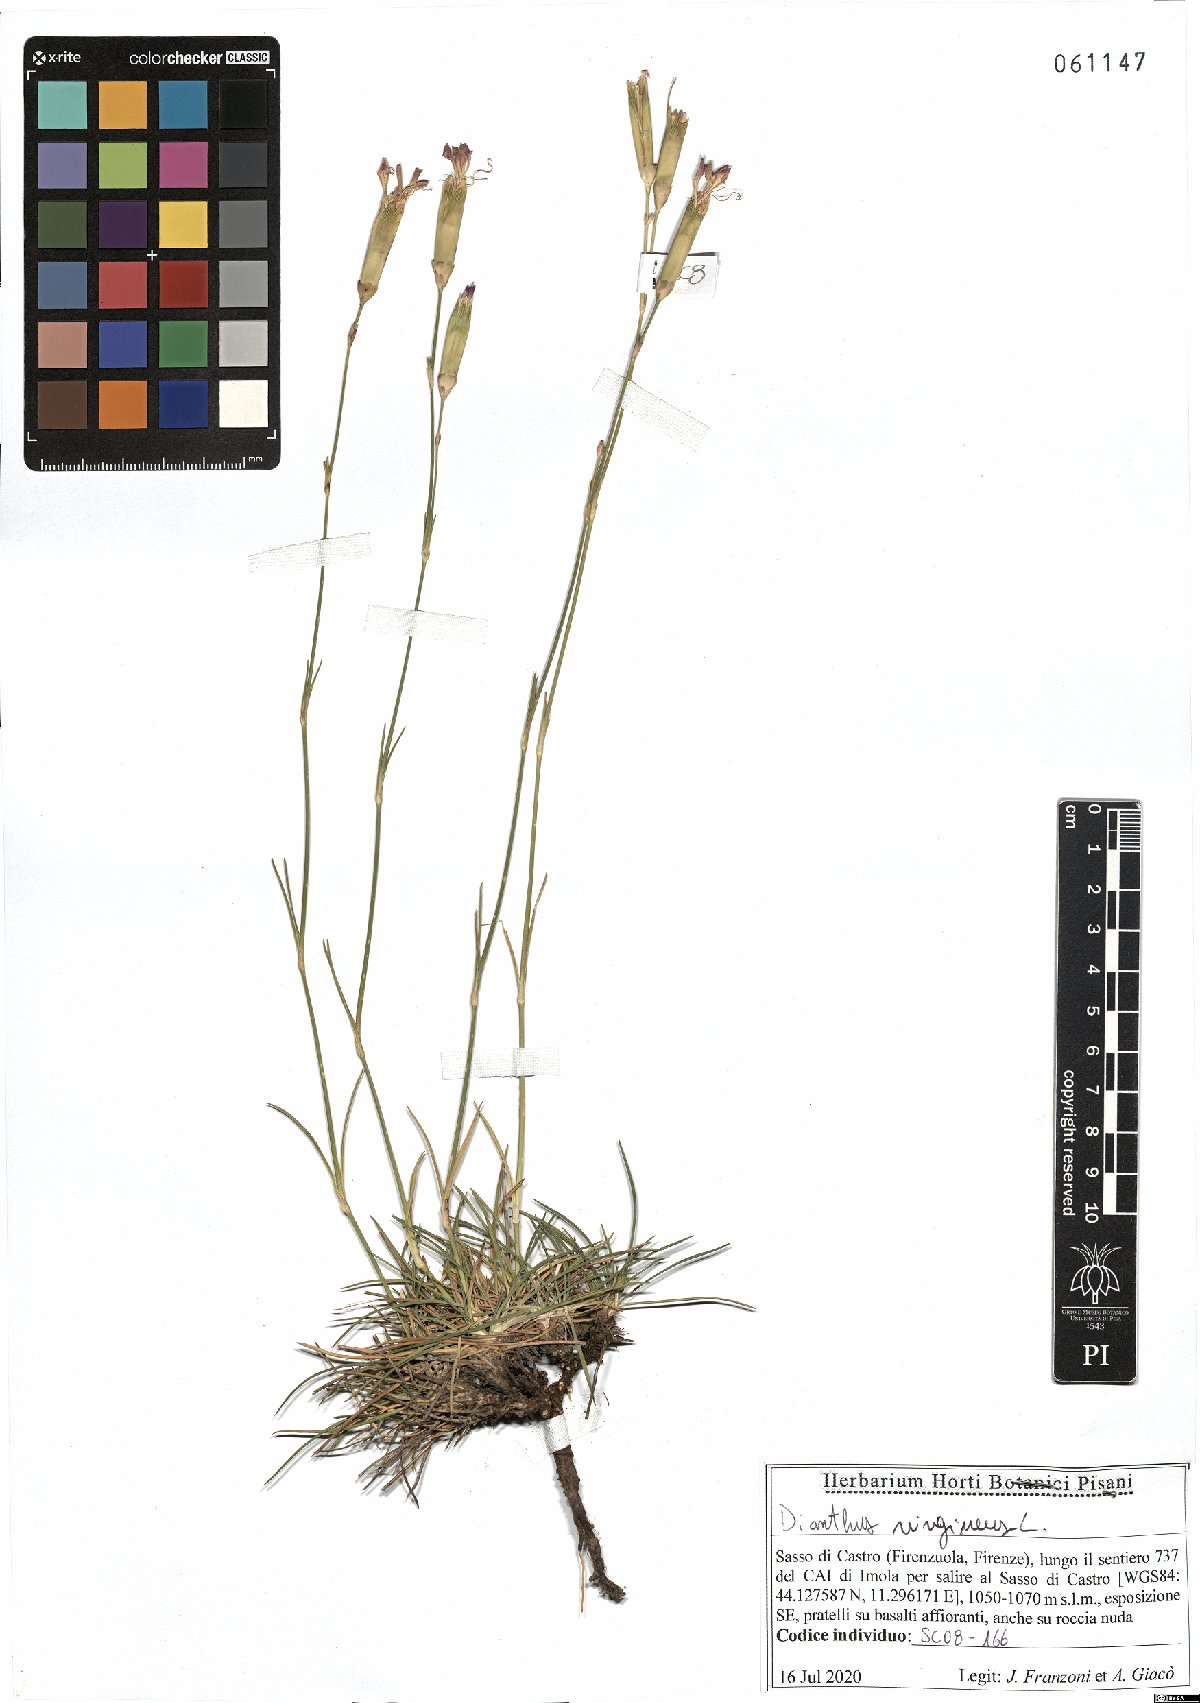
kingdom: Plantae
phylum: Tracheophyta
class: Magnoliopsida
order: Caryophyllales
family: Caryophyllaceae
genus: Dianthus
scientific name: Dianthus virgineus
